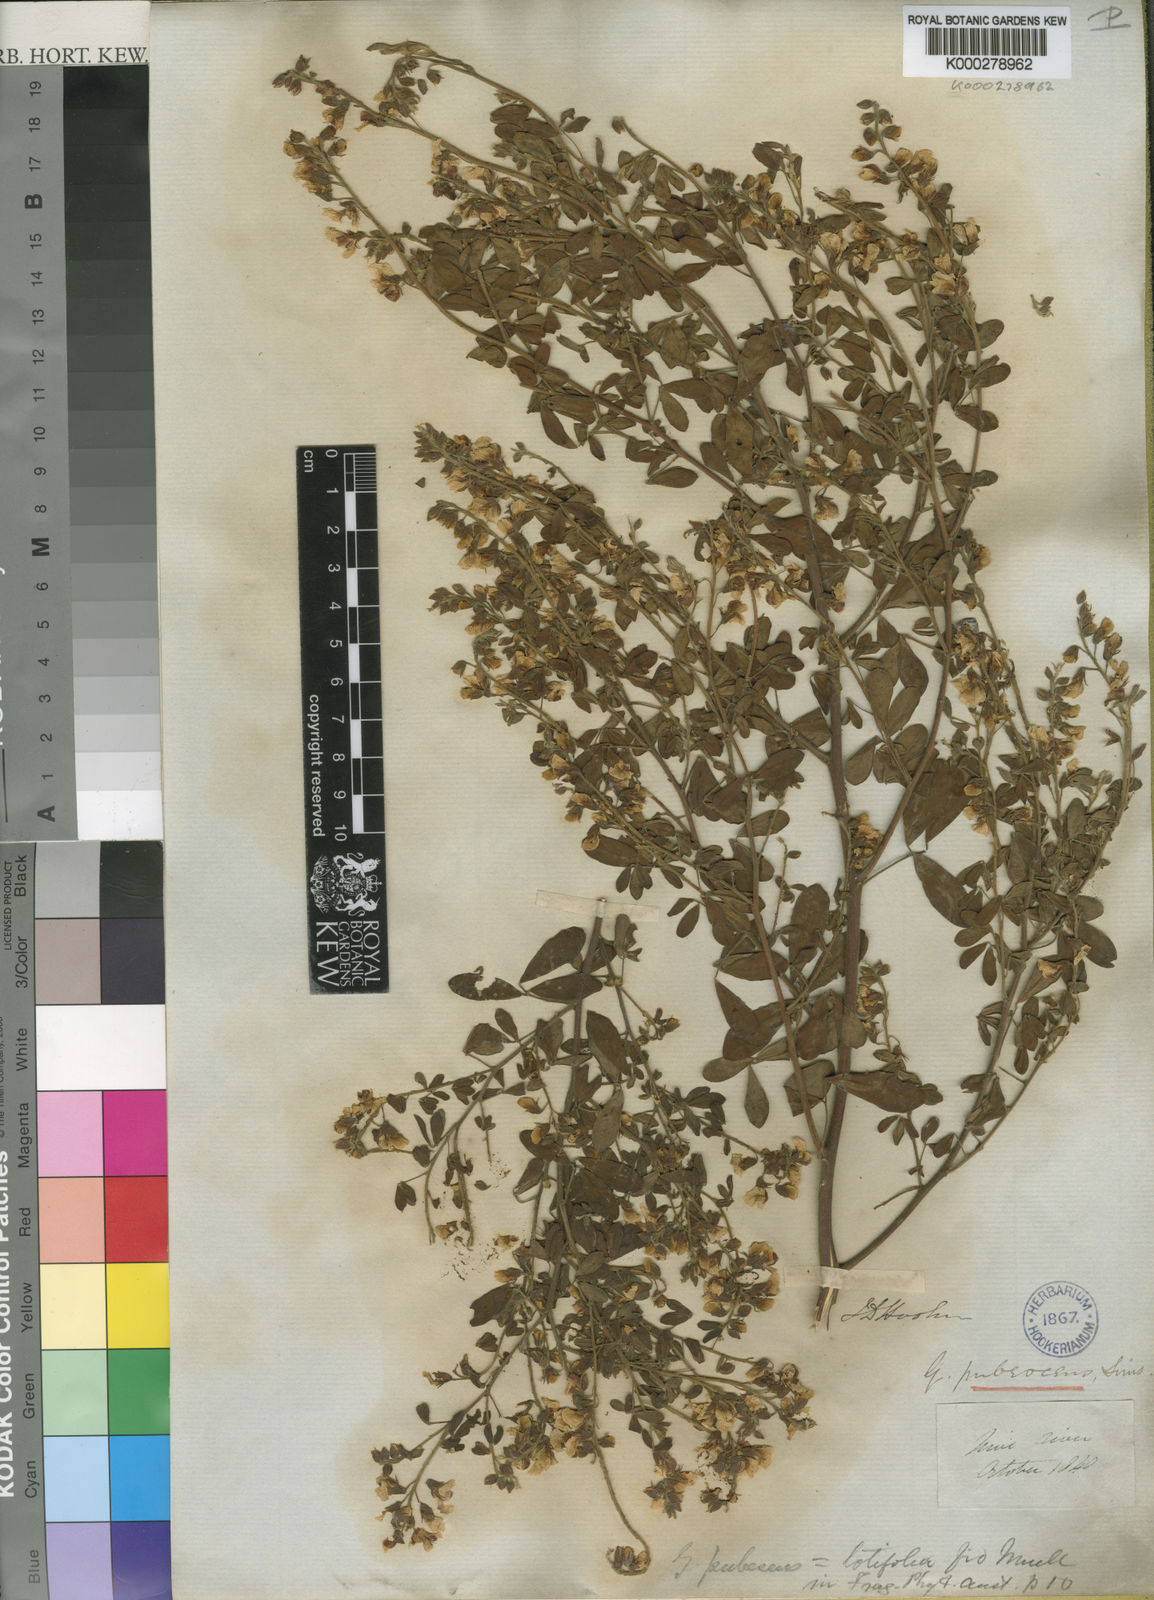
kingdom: Plantae
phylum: Tracheophyta
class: Magnoliopsida
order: Fabales
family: Fabaceae
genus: Goodia
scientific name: Goodia pubescens
